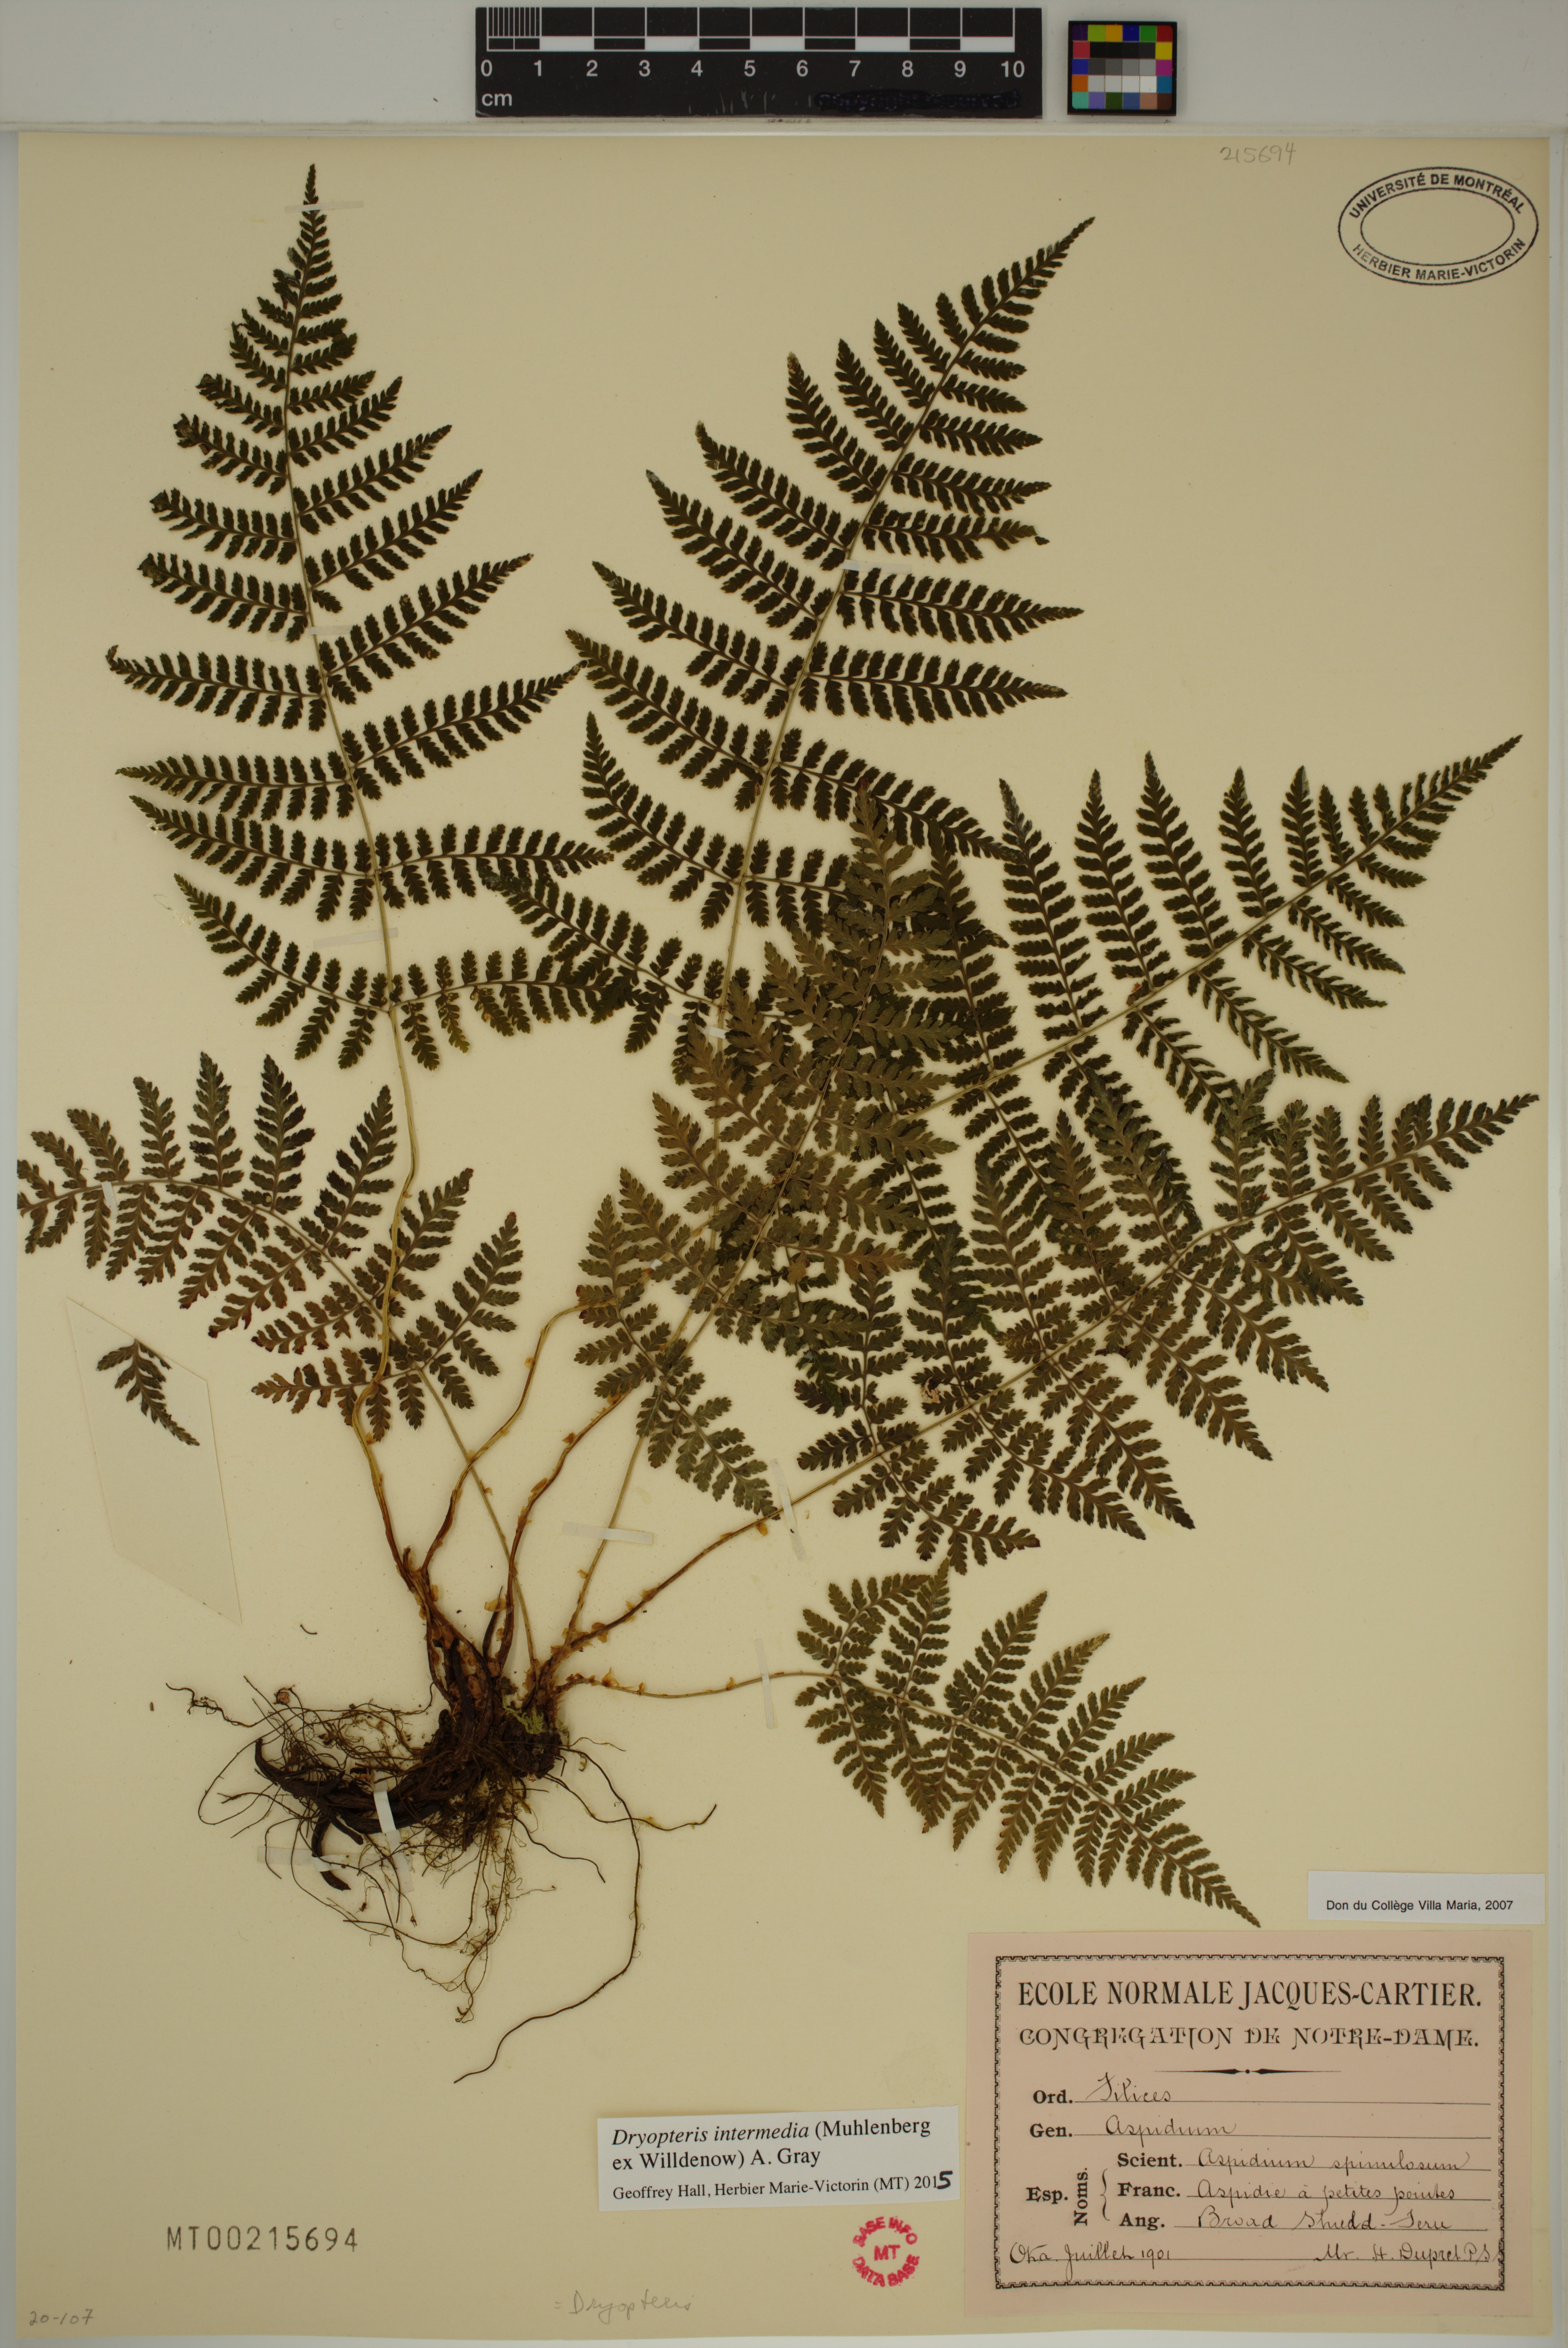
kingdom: Plantae
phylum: Tracheophyta
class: Polypodiopsida
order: Polypodiales
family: Dryopteridaceae
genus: Dryopteris
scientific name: Dryopteris intermedia
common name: Evergreen wood fern
